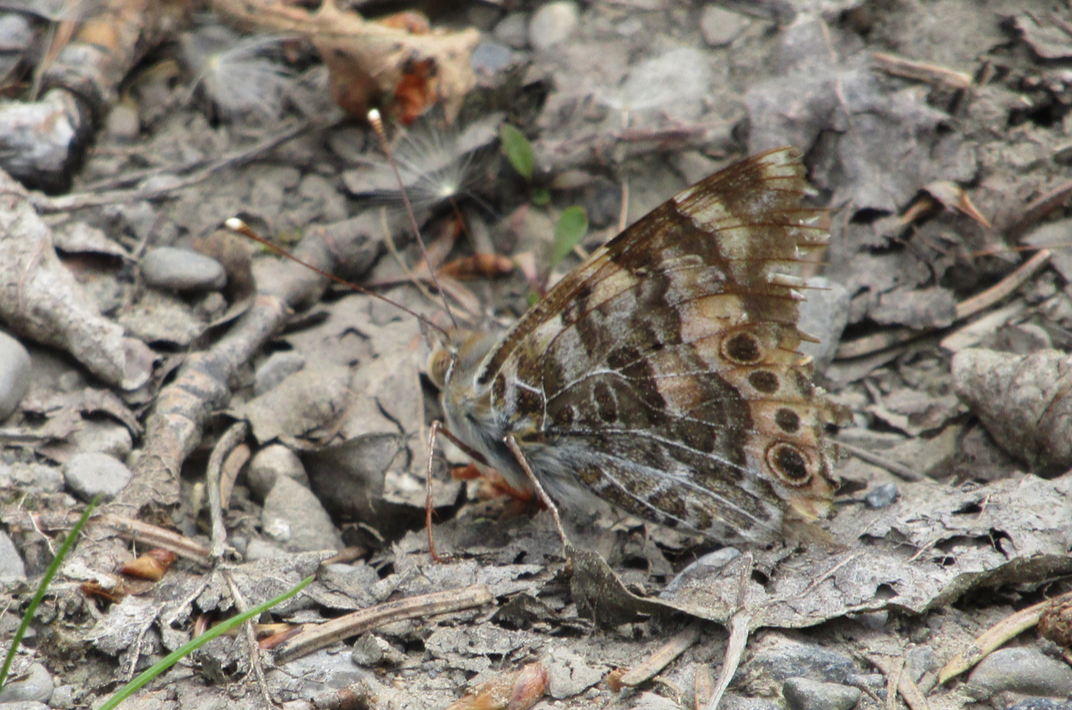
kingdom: Animalia
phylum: Arthropoda
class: Insecta
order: Lepidoptera
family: Nymphalidae
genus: Vanessa
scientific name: Vanessa cardui
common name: Painted Lady
